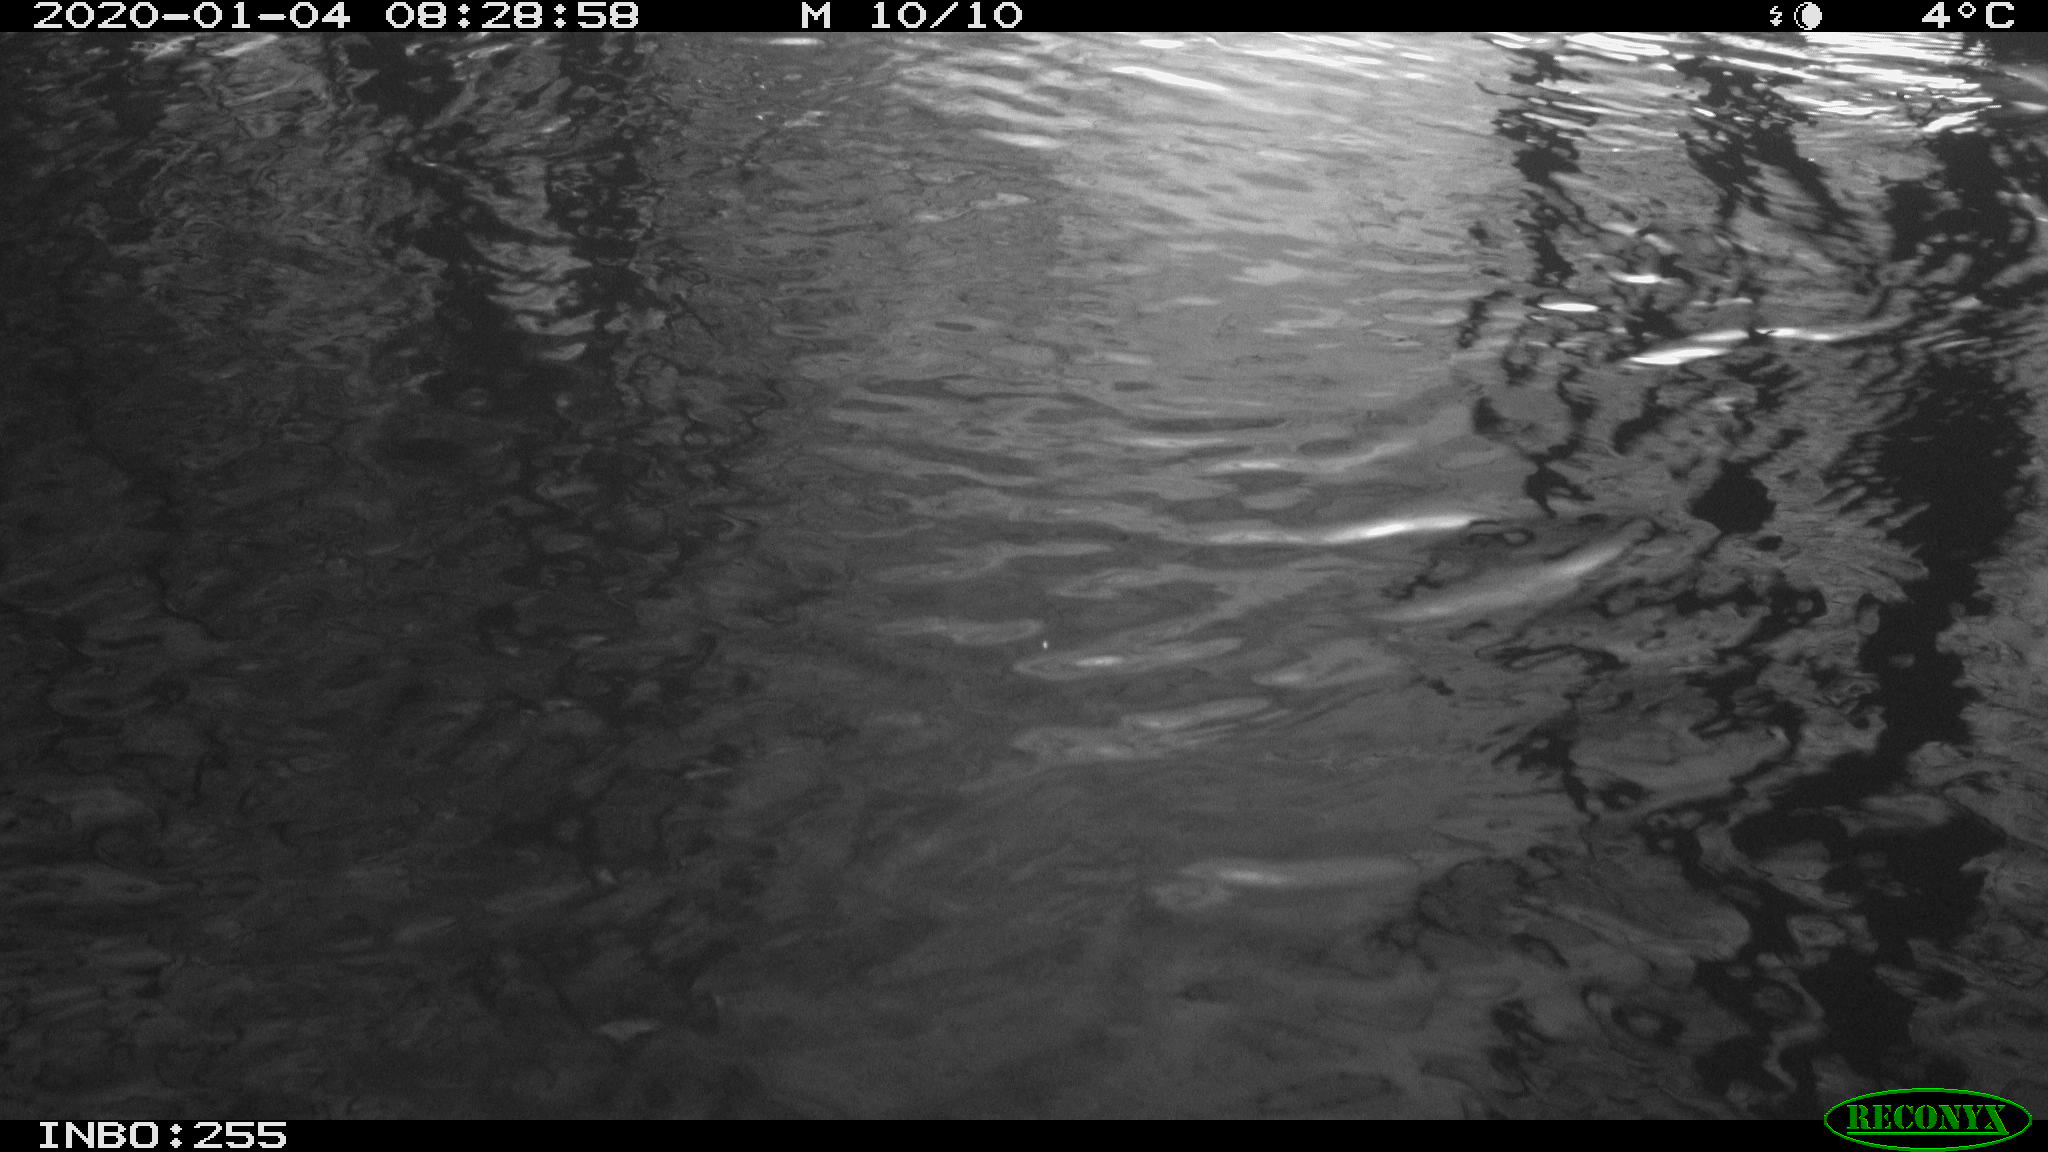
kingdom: Animalia
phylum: Chordata
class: Aves
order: Gruiformes
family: Rallidae
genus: Gallinula
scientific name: Gallinula chloropus
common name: Common moorhen
